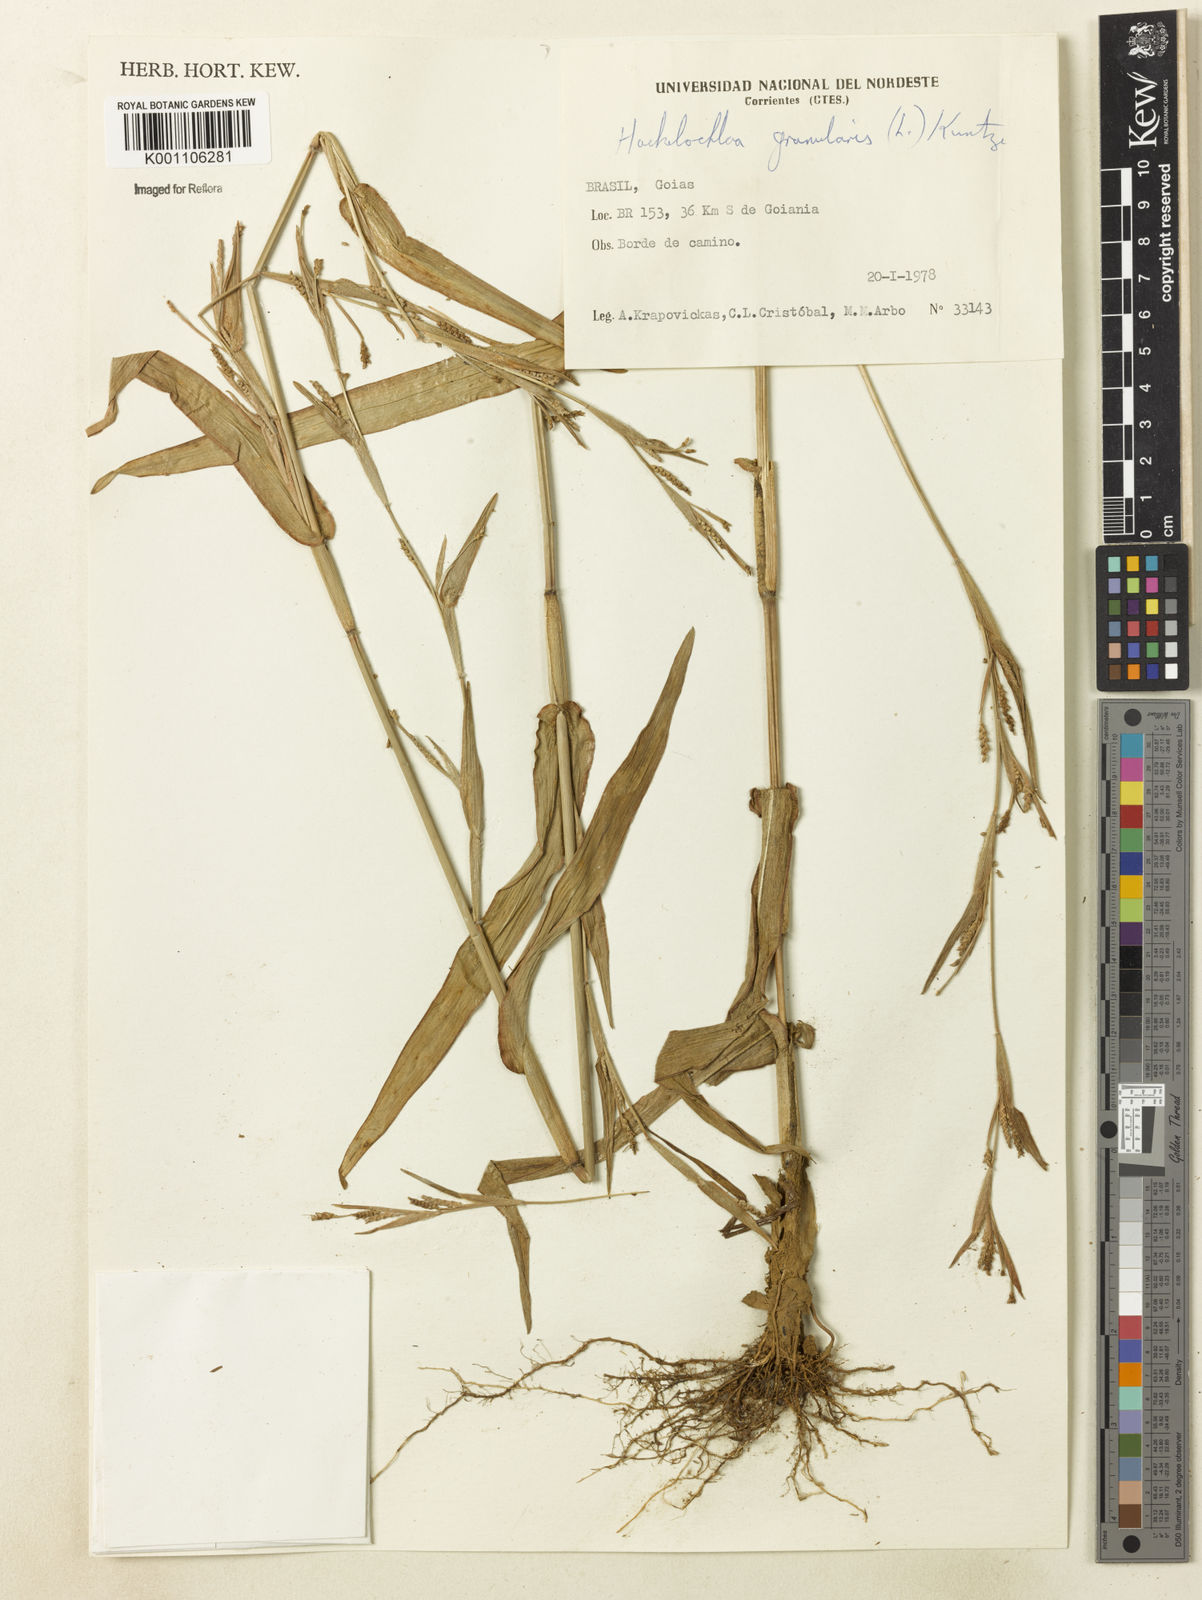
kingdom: Plantae
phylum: Tracheophyta
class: Liliopsida
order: Poales
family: Poaceae
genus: Hackelochloa
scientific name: Hackelochloa granularis
